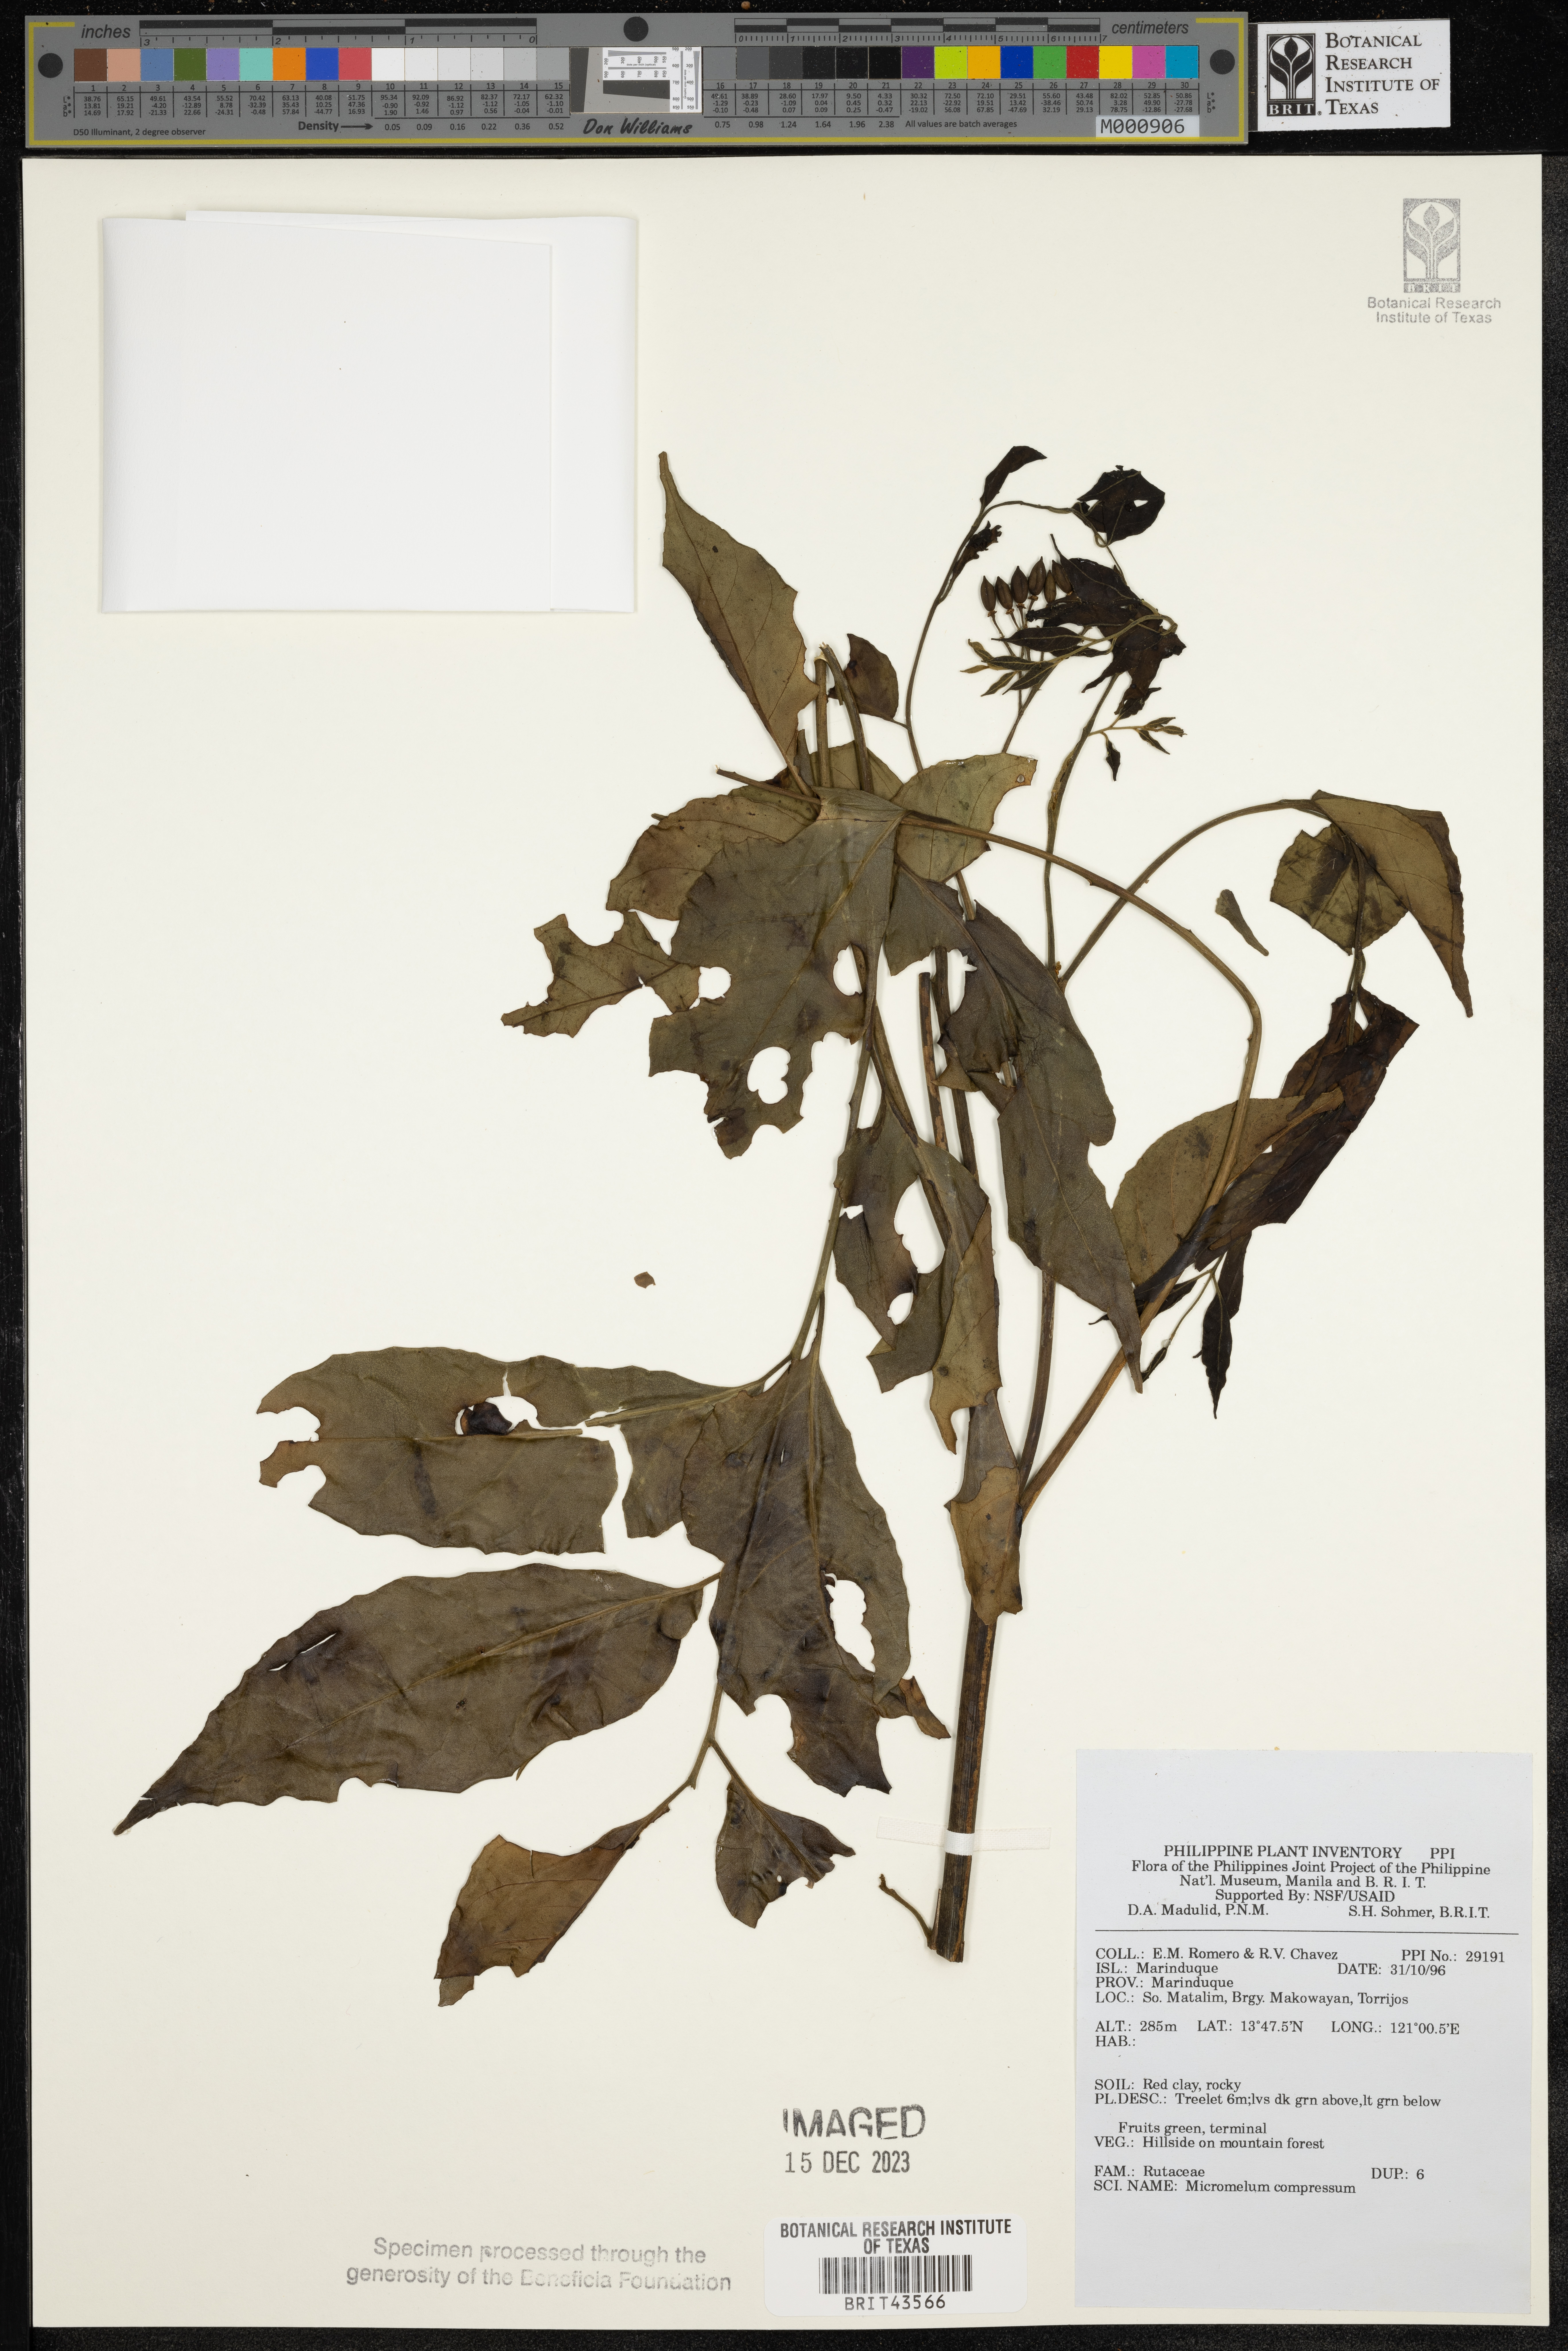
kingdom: Plantae
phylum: Tracheophyta
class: Magnoliopsida
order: Sapindales
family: Rutaceae
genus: Micromelum
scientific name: Micromelum compressum
